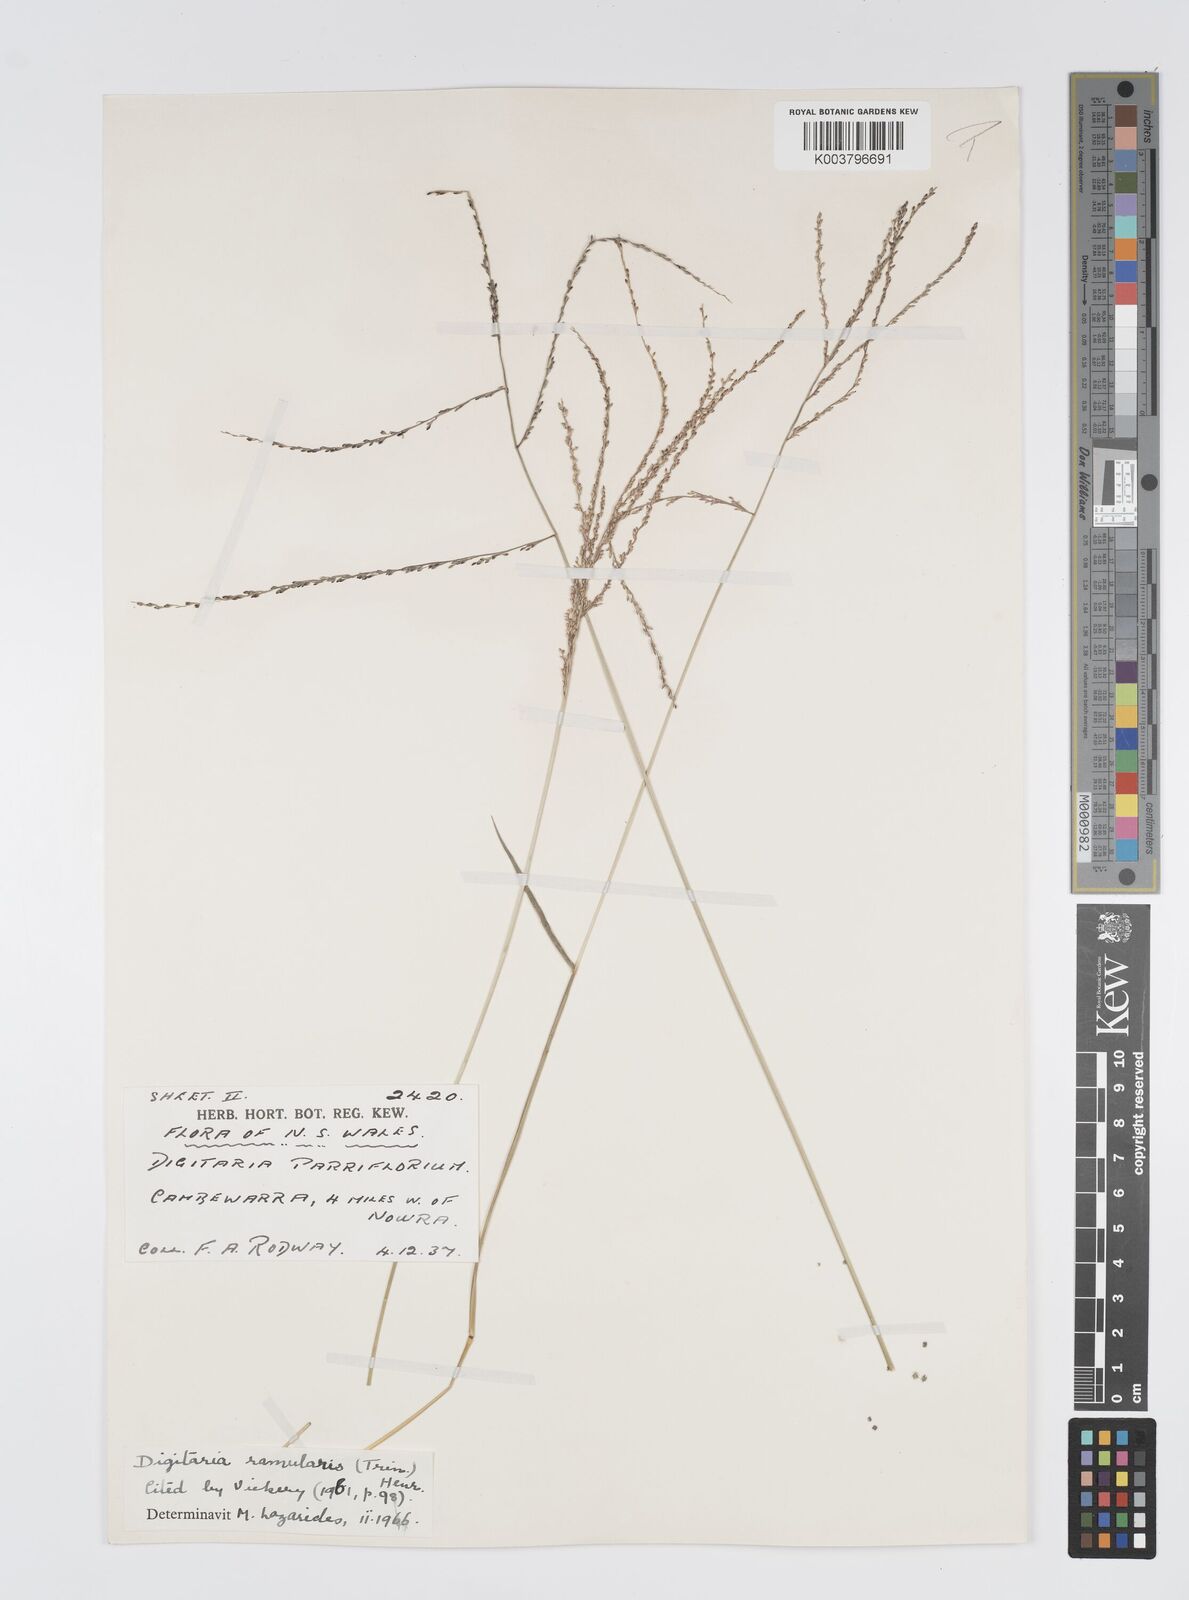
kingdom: Plantae
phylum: Tracheophyta
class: Liliopsida
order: Poales
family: Poaceae
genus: Digitaria
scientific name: Digitaria ramularis
